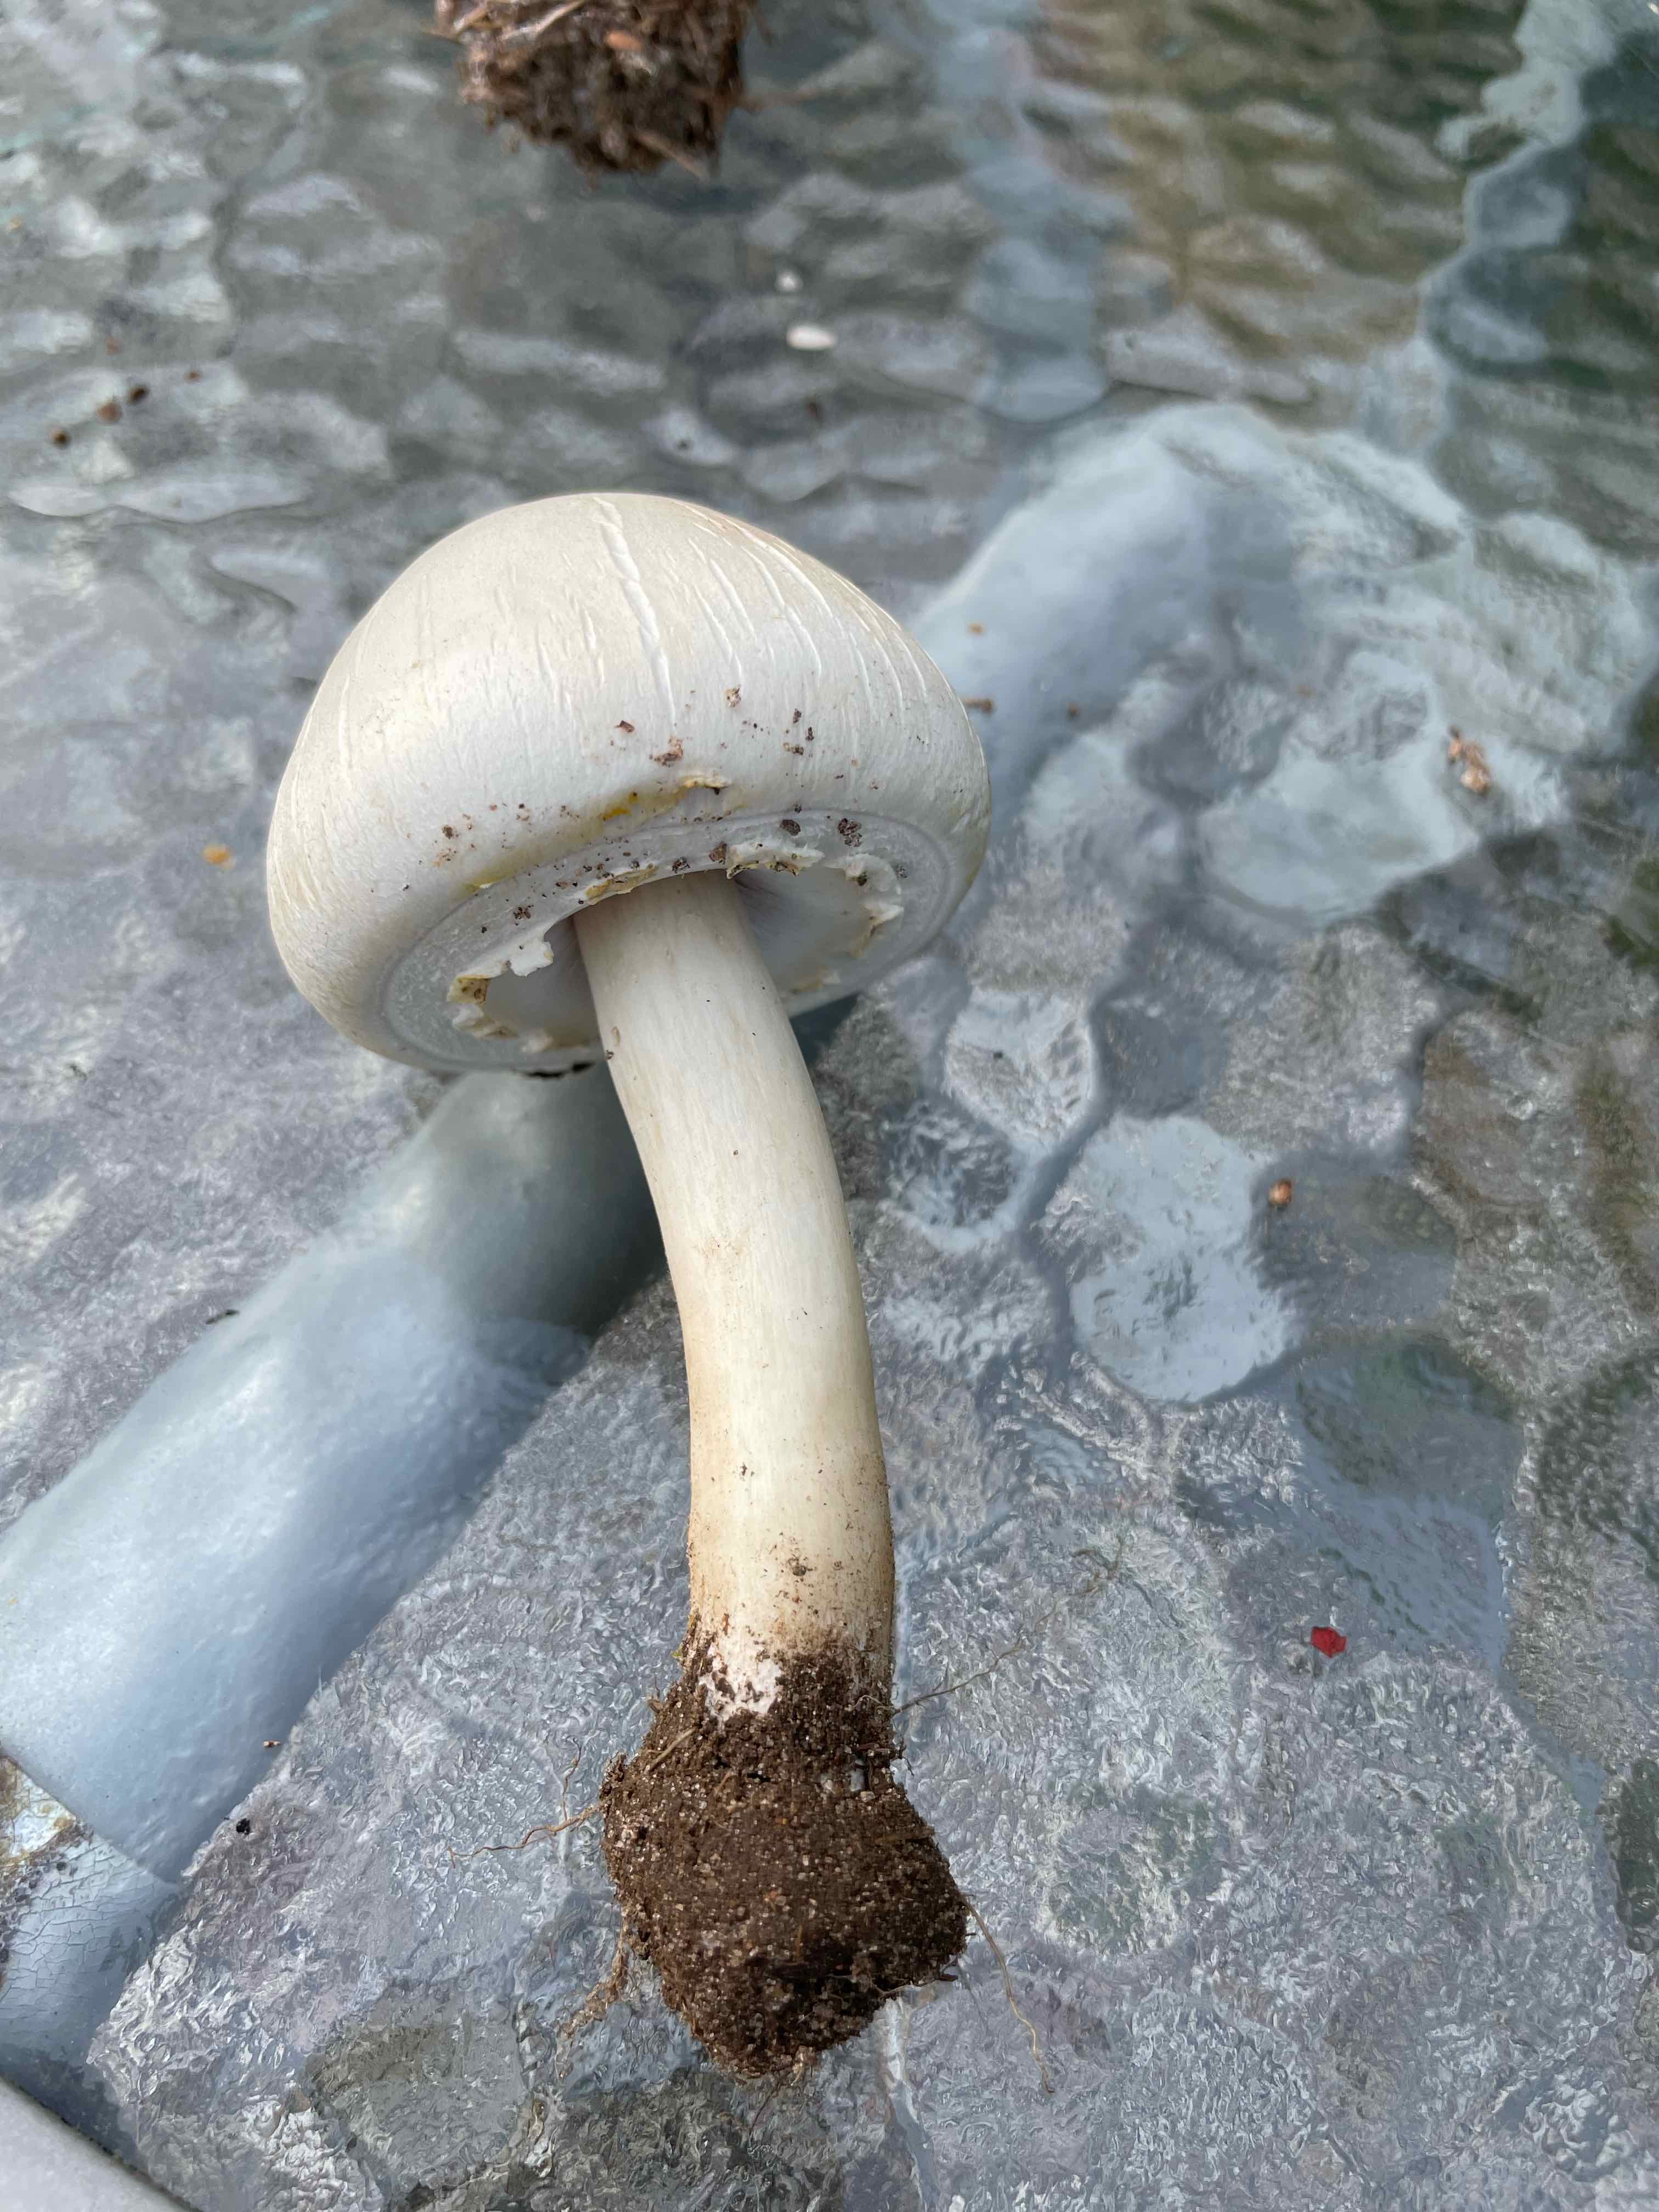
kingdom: Fungi
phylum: Basidiomycota
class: Agaricomycetes
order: Agaricales
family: Agaricaceae
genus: Agaricus
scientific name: Agaricus xanthodermus
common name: karbol-champignon
